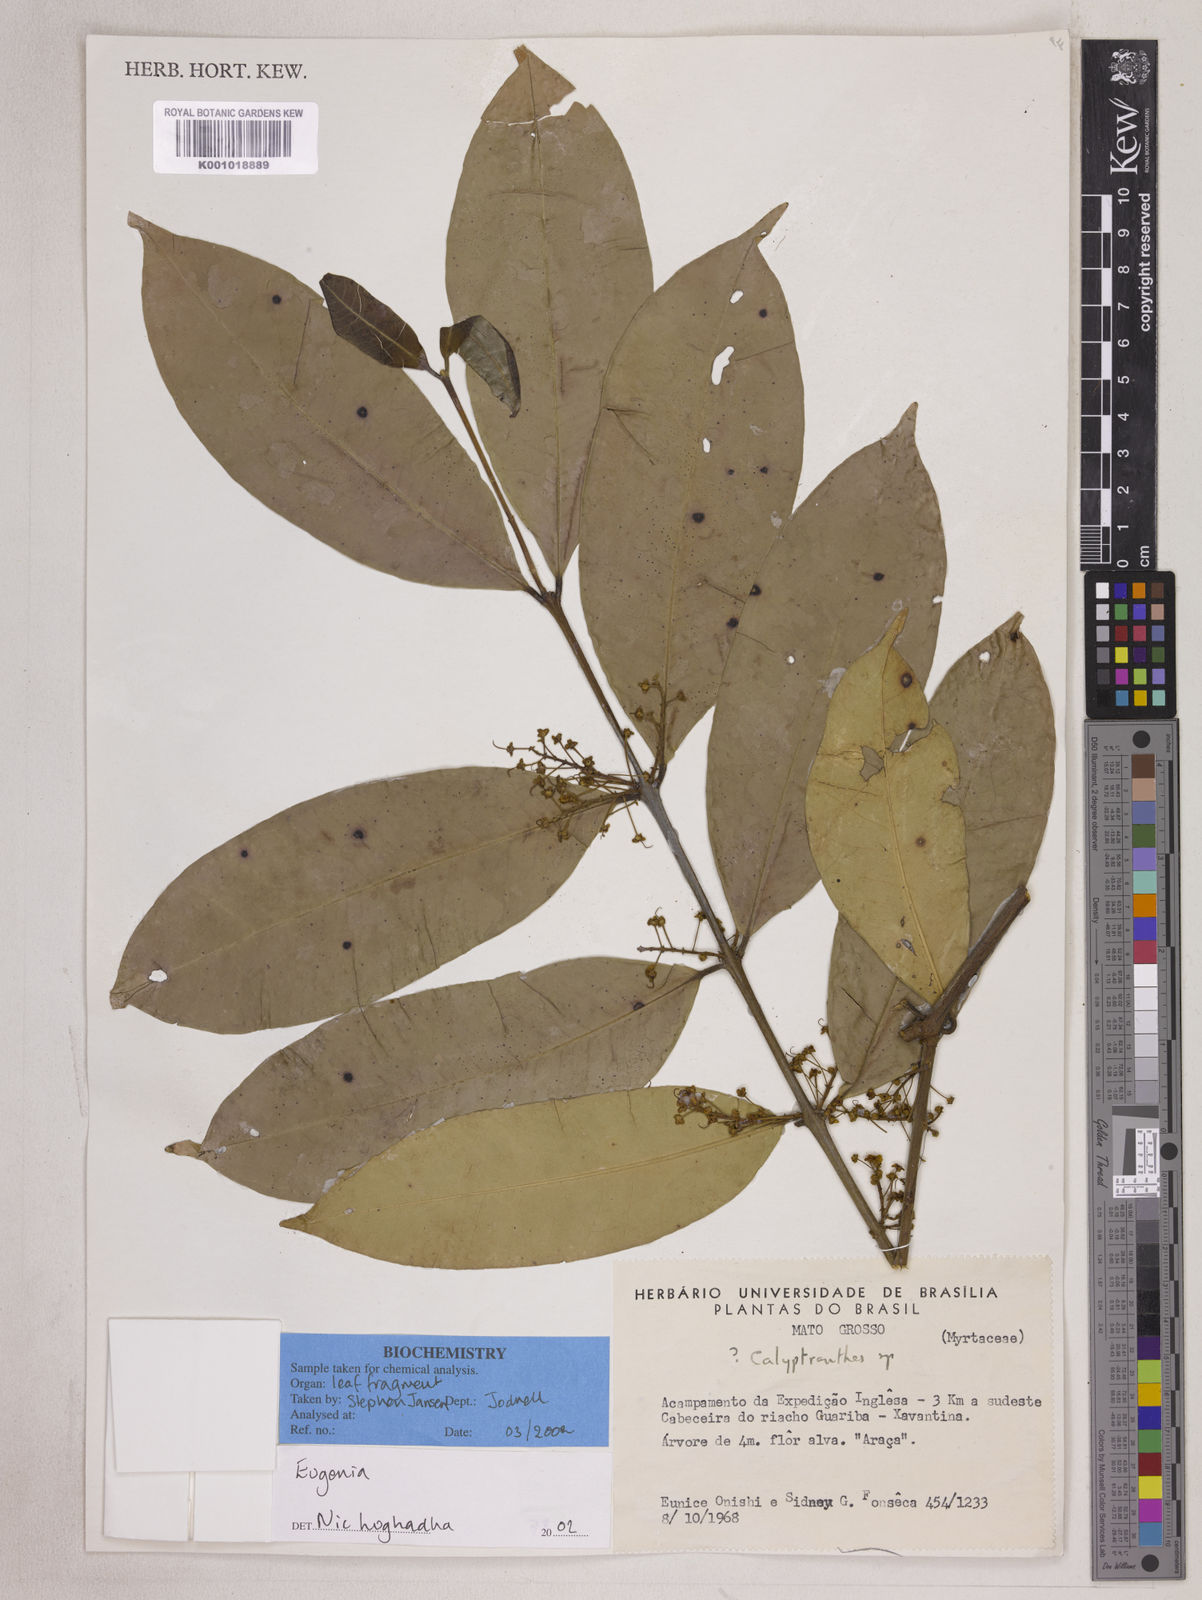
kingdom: Plantae
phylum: Tracheophyta
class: Magnoliopsida
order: Myrtales
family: Myrtaceae
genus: Eugenia
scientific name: Eugenia densiracemosa
